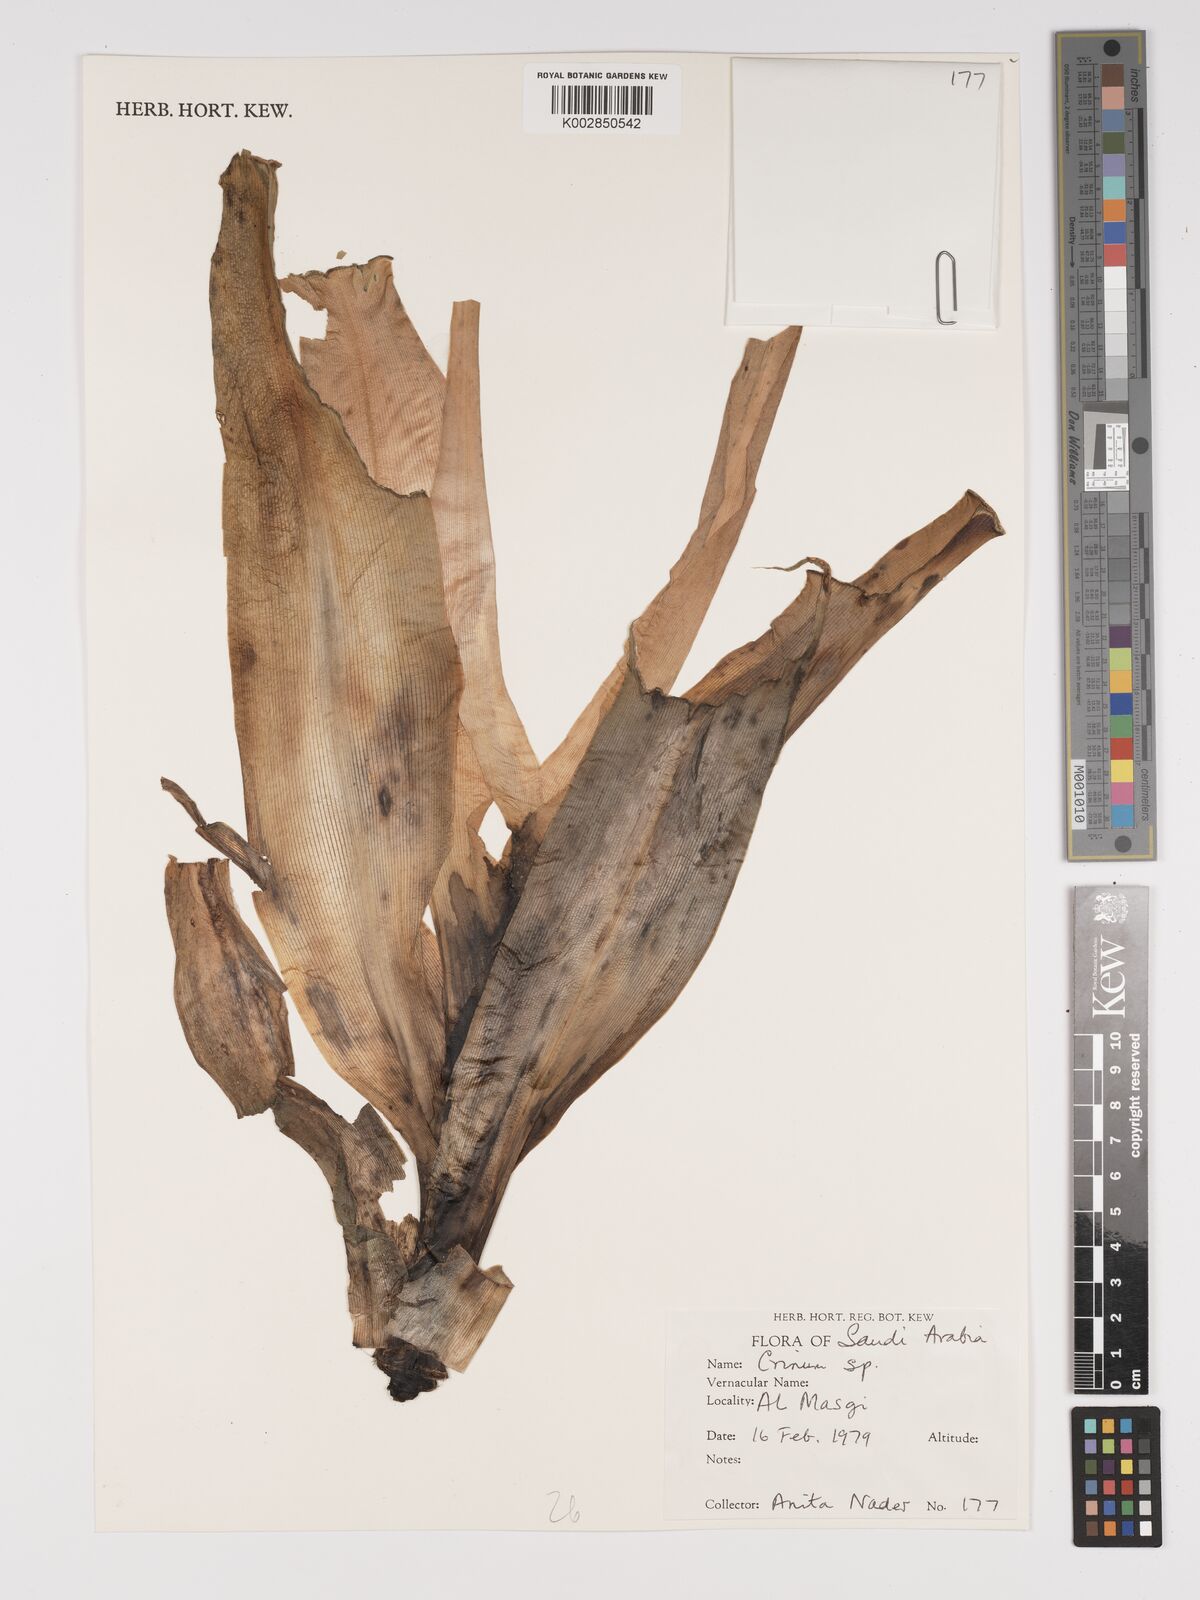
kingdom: Plantae
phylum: Tracheophyta
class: Liliopsida
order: Asparagales
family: Amaryllidaceae
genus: Crinum
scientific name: Crinum
